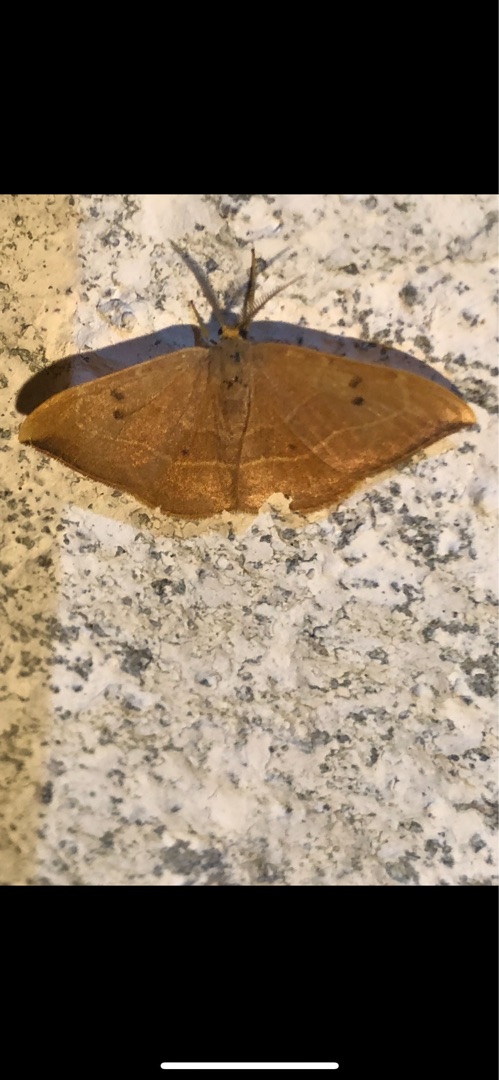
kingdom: Animalia
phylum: Arthropoda
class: Insecta
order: Lepidoptera
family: Drepanidae
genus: Watsonalla
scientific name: Watsonalla binaria
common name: Toplettet seglvinge
